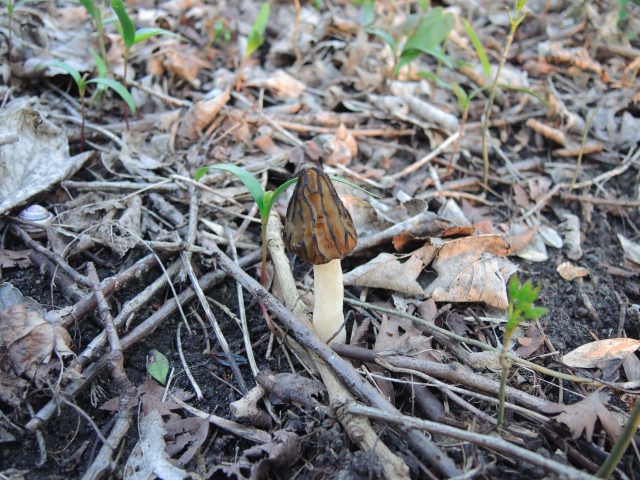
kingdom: Fungi
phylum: Ascomycota
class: Pezizomycetes
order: Pezizales
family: Morchellaceae
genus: Morchella
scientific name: Morchella semilibera
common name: hætte-morkel
